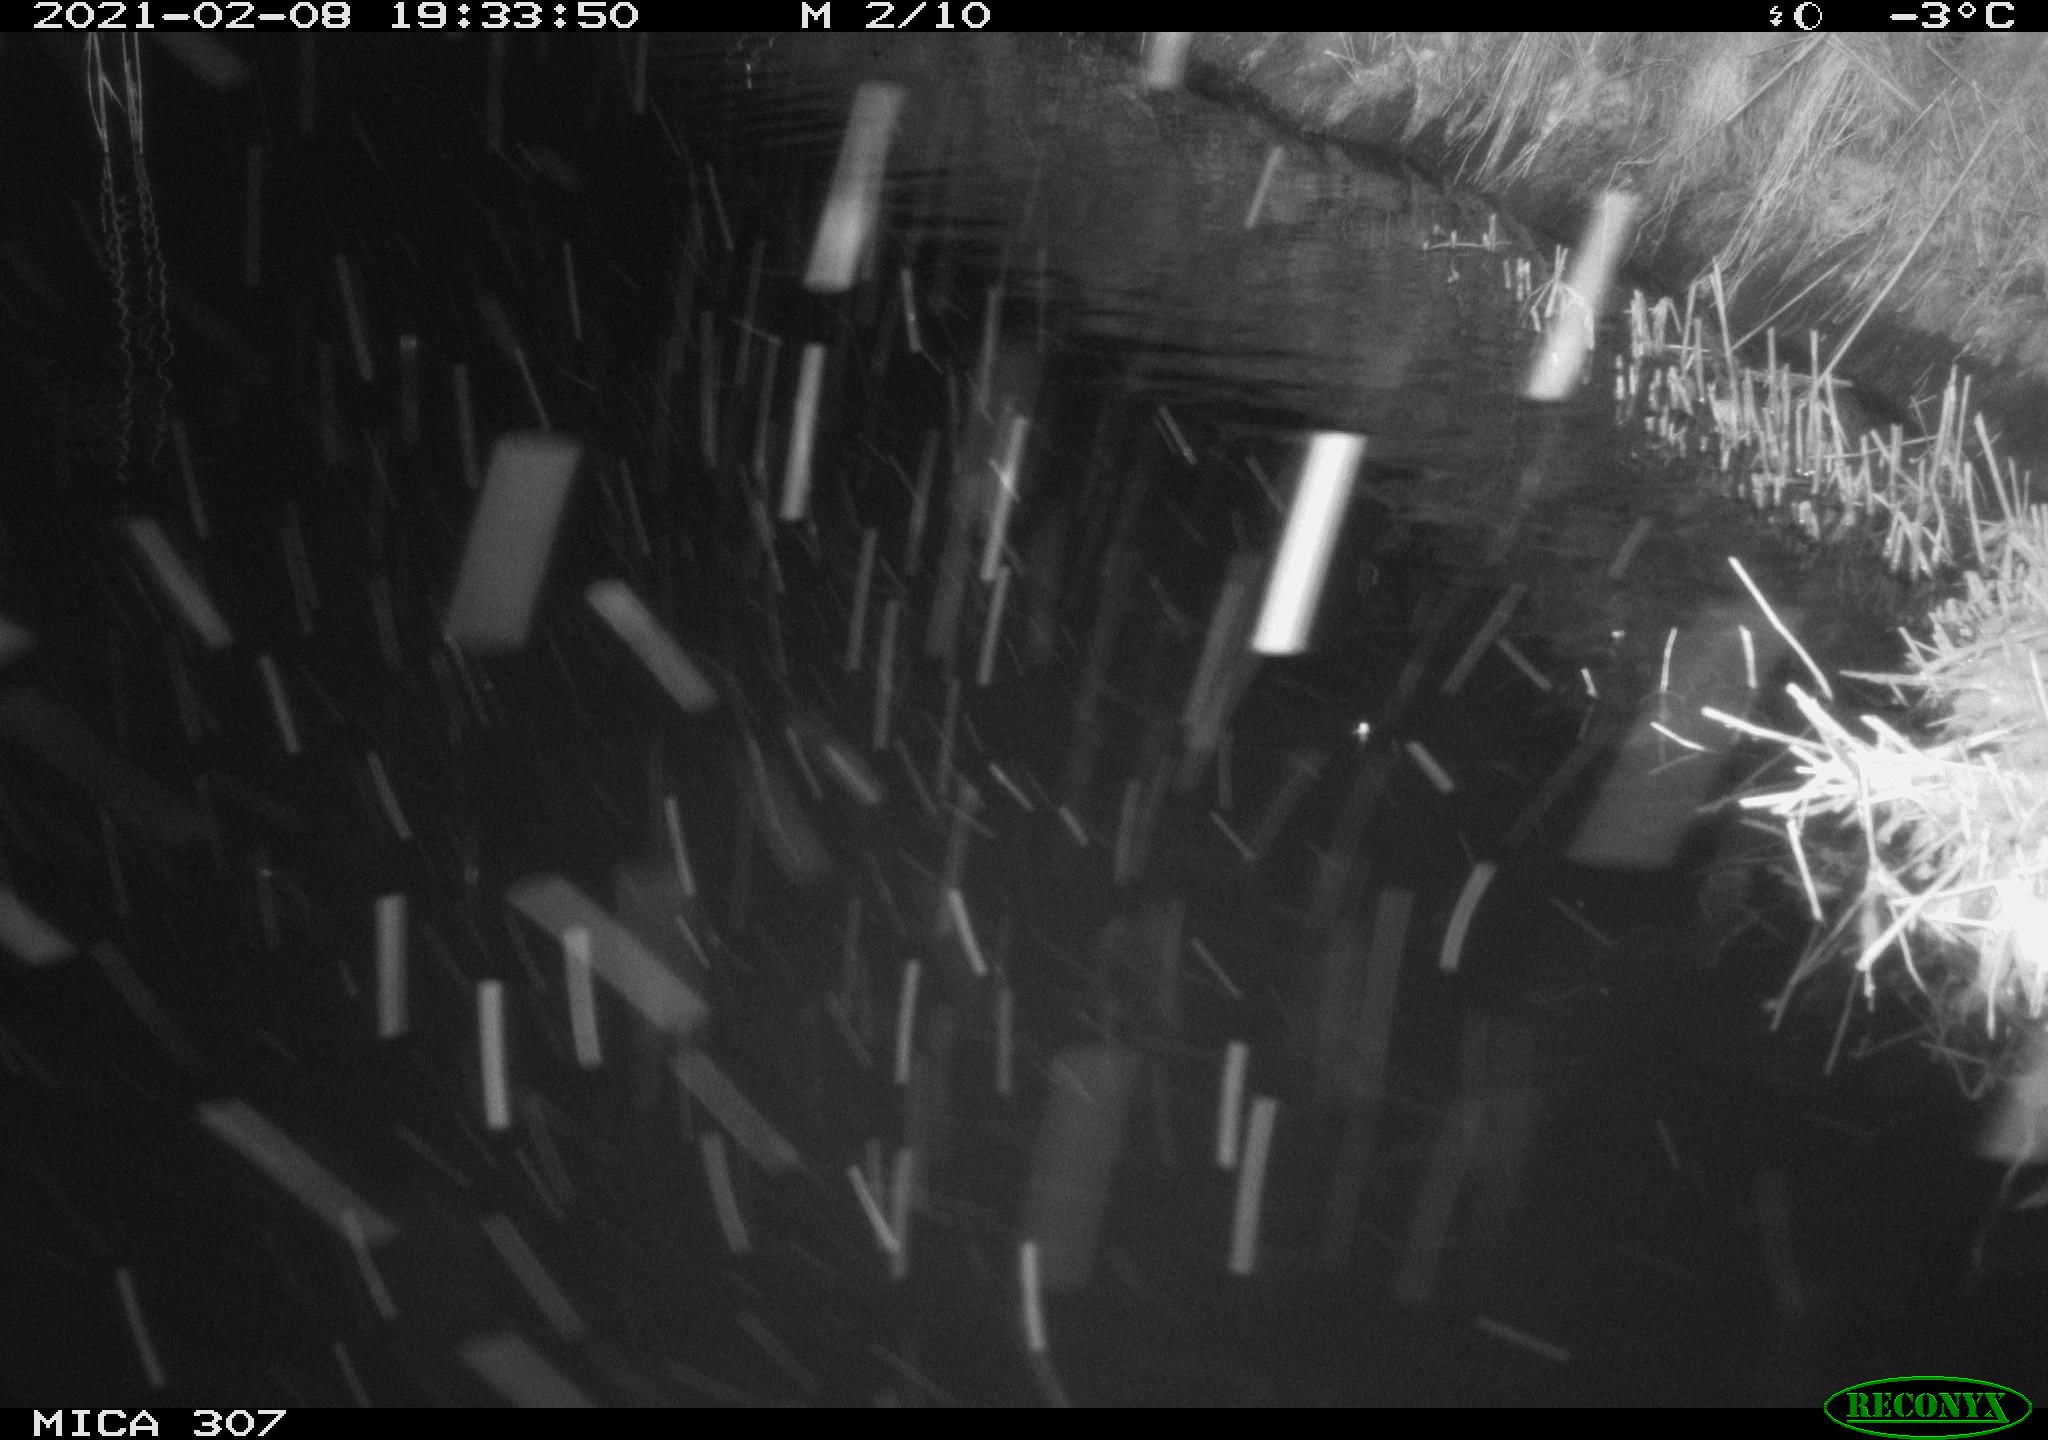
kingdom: Animalia
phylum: Chordata
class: Aves
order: Anseriformes
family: Anatidae
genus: Anas
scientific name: Anas platyrhynchos
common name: Mallard
